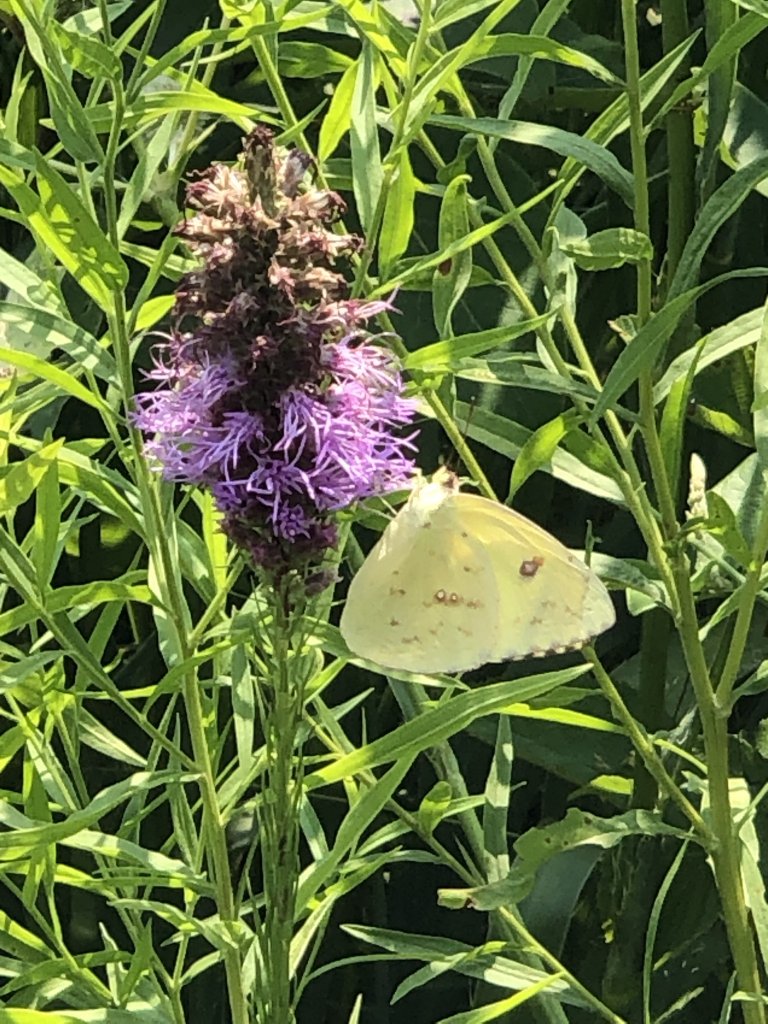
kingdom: Animalia
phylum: Arthropoda
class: Insecta
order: Lepidoptera
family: Pieridae
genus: Phoebis
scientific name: Phoebis sennae
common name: Cloudless Sulphur
